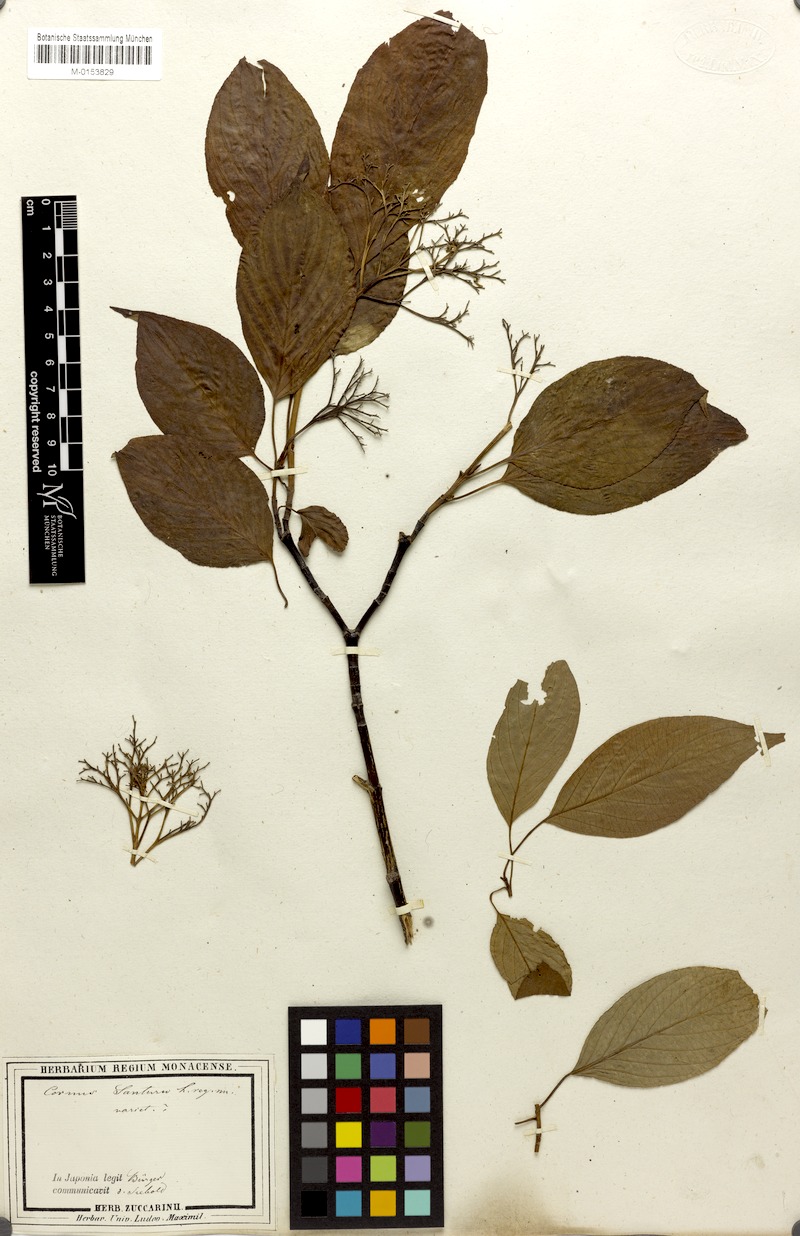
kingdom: Plantae
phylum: Tracheophyta
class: Magnoliopsida
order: Cornales
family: Cornaceae
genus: Cornus
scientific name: Cornus amomum
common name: Silky dogwood
